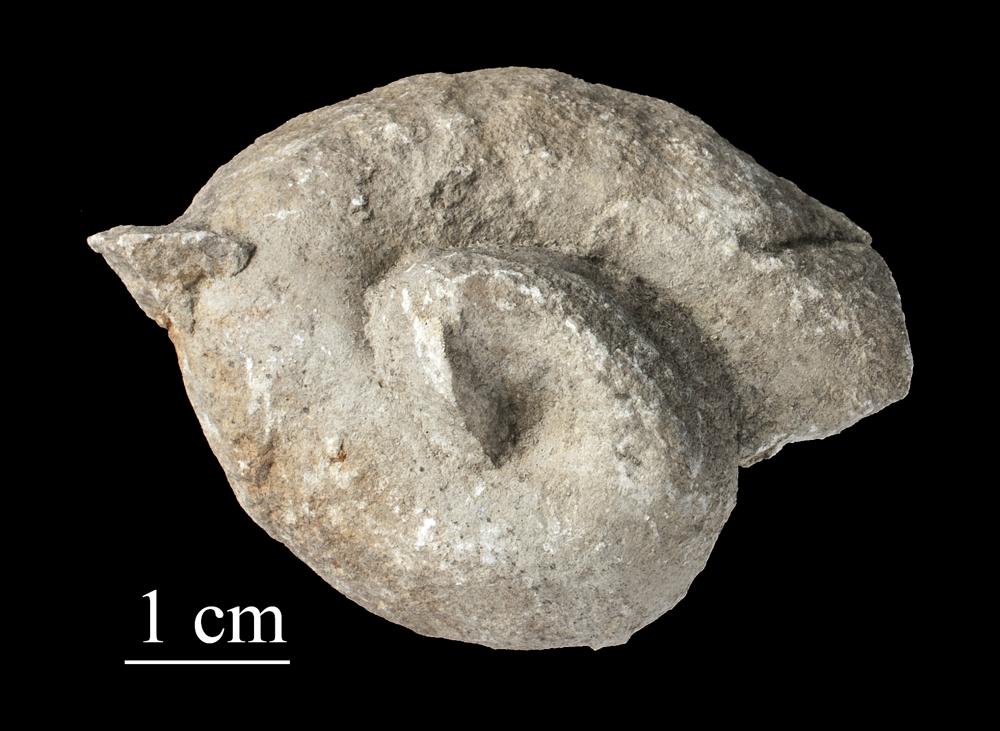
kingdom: Animalia
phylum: Mollusca
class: Gastropoda
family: Holopeidae
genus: Holopea
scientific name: Holopea ampullacea
